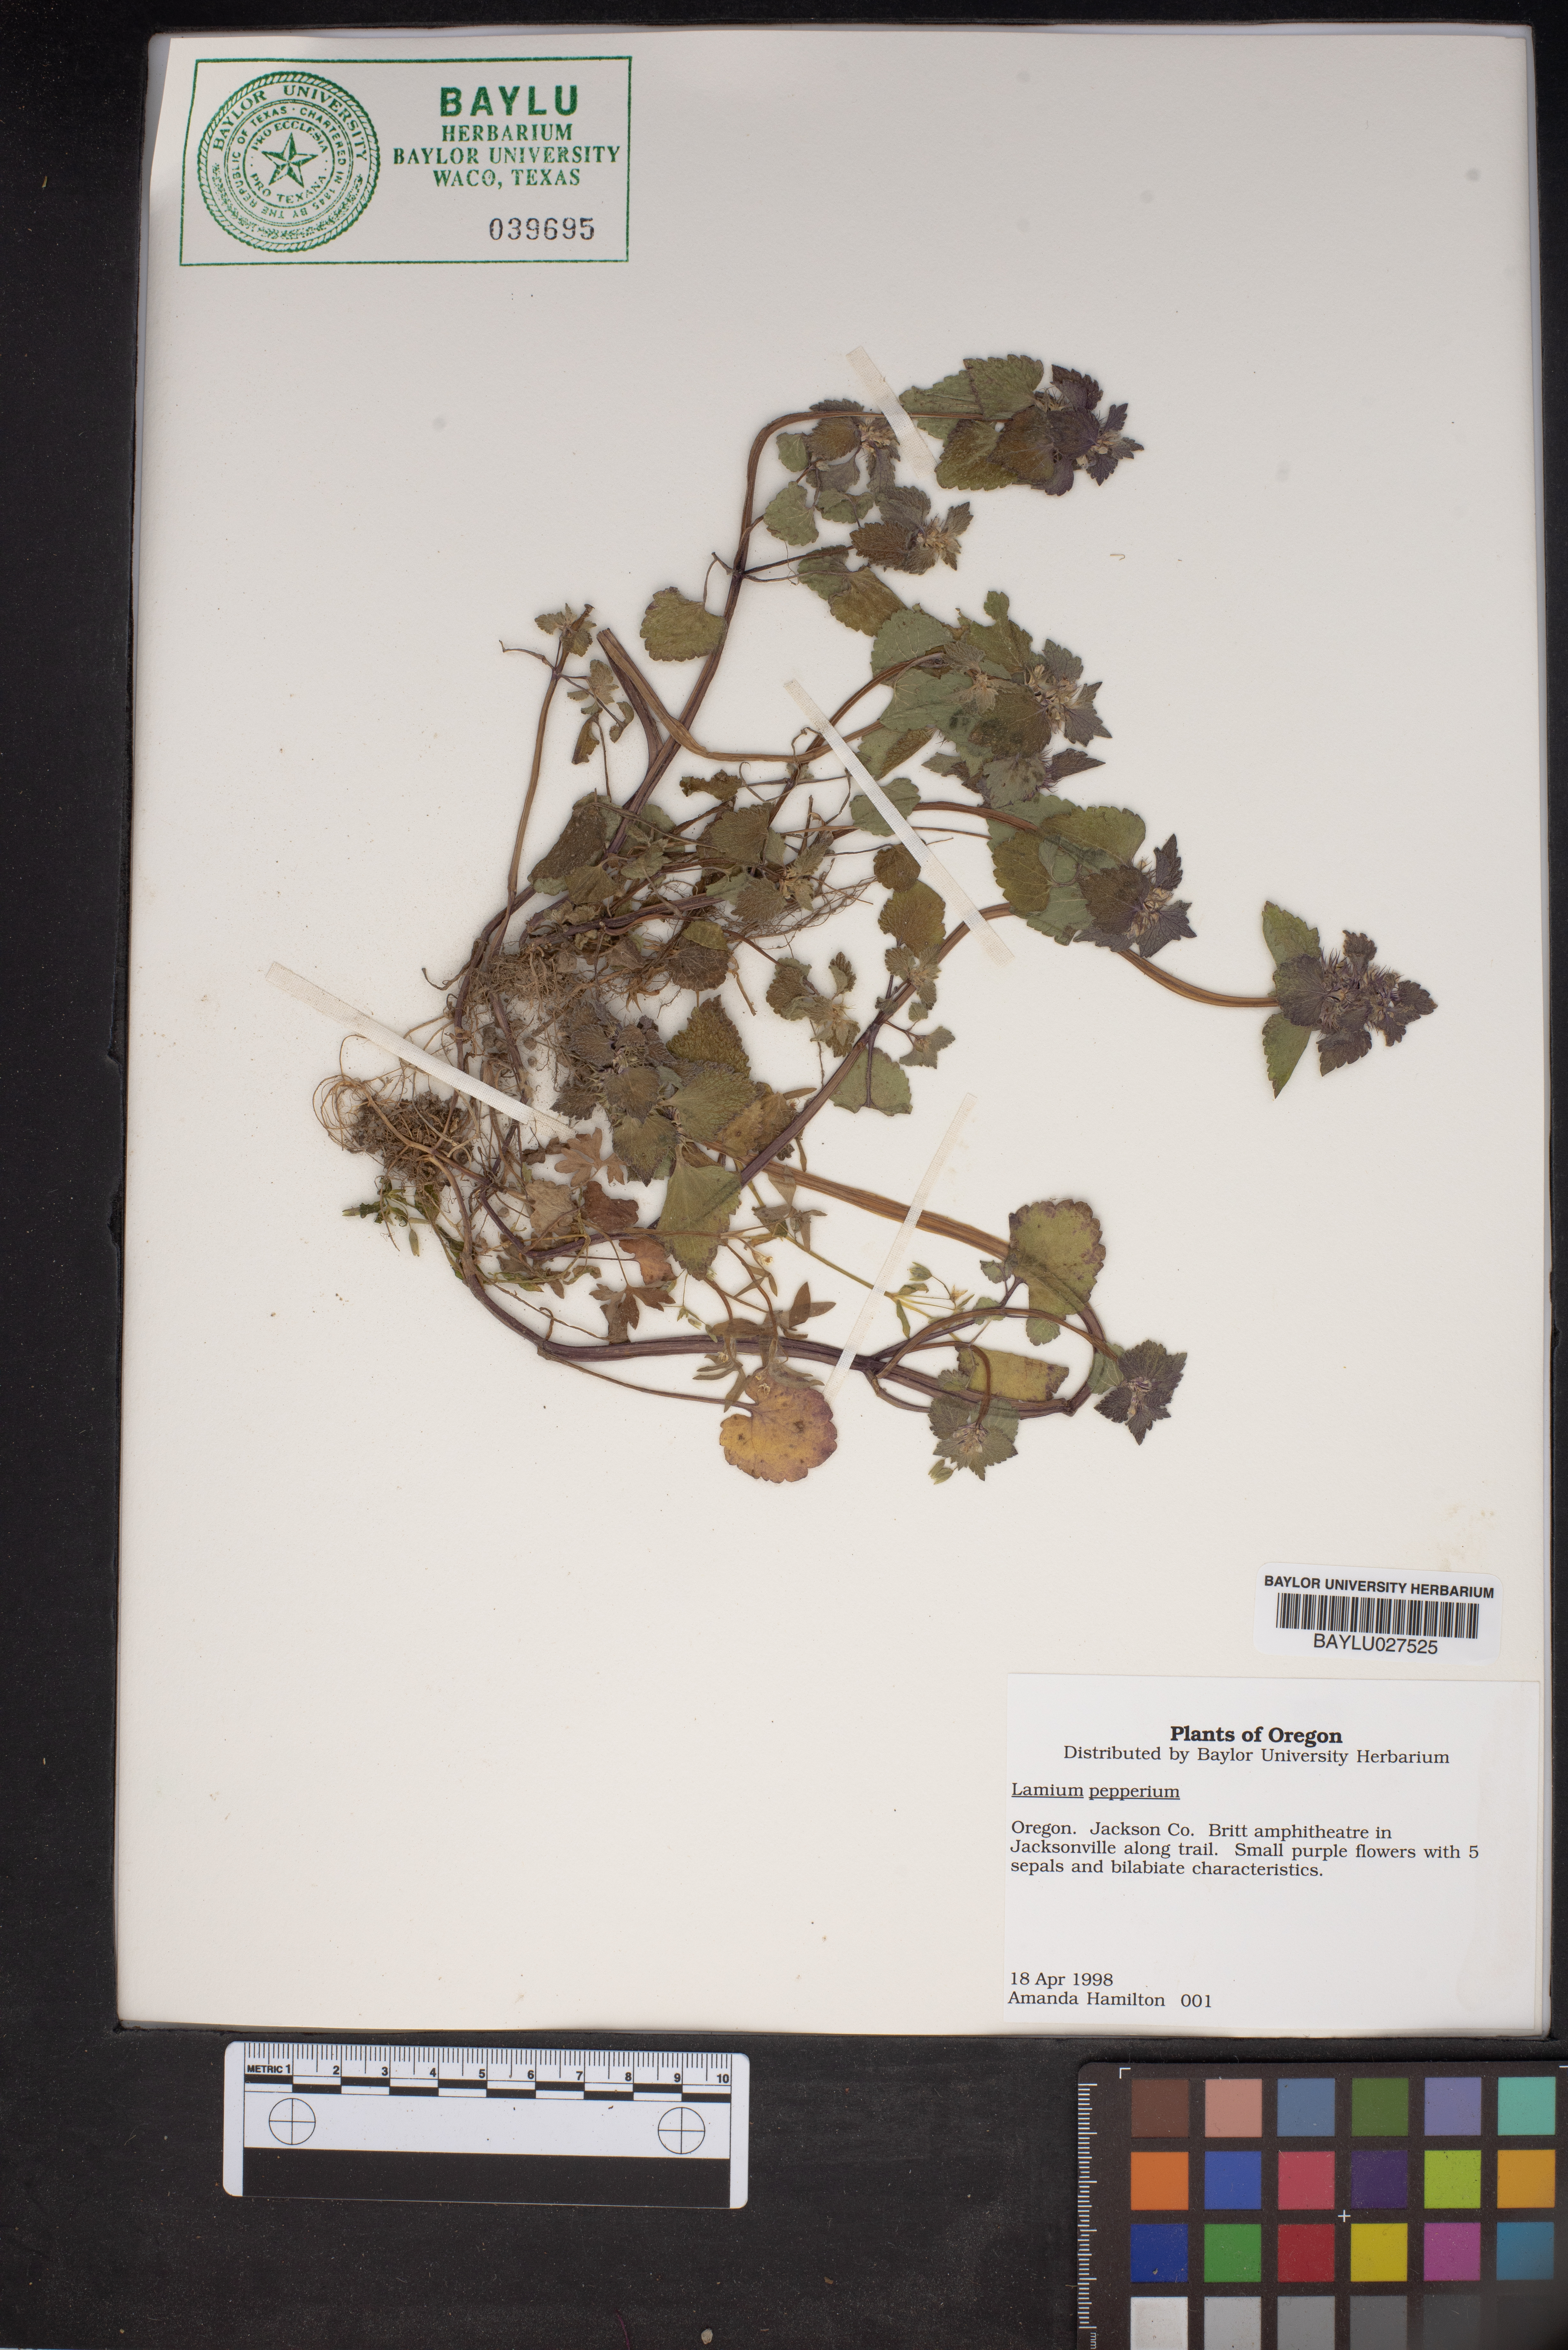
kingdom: Plantae
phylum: Tracheophyta
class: Magnoliopsida
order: Lamiales
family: Lamiaceae
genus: Lamium
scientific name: Lamium
